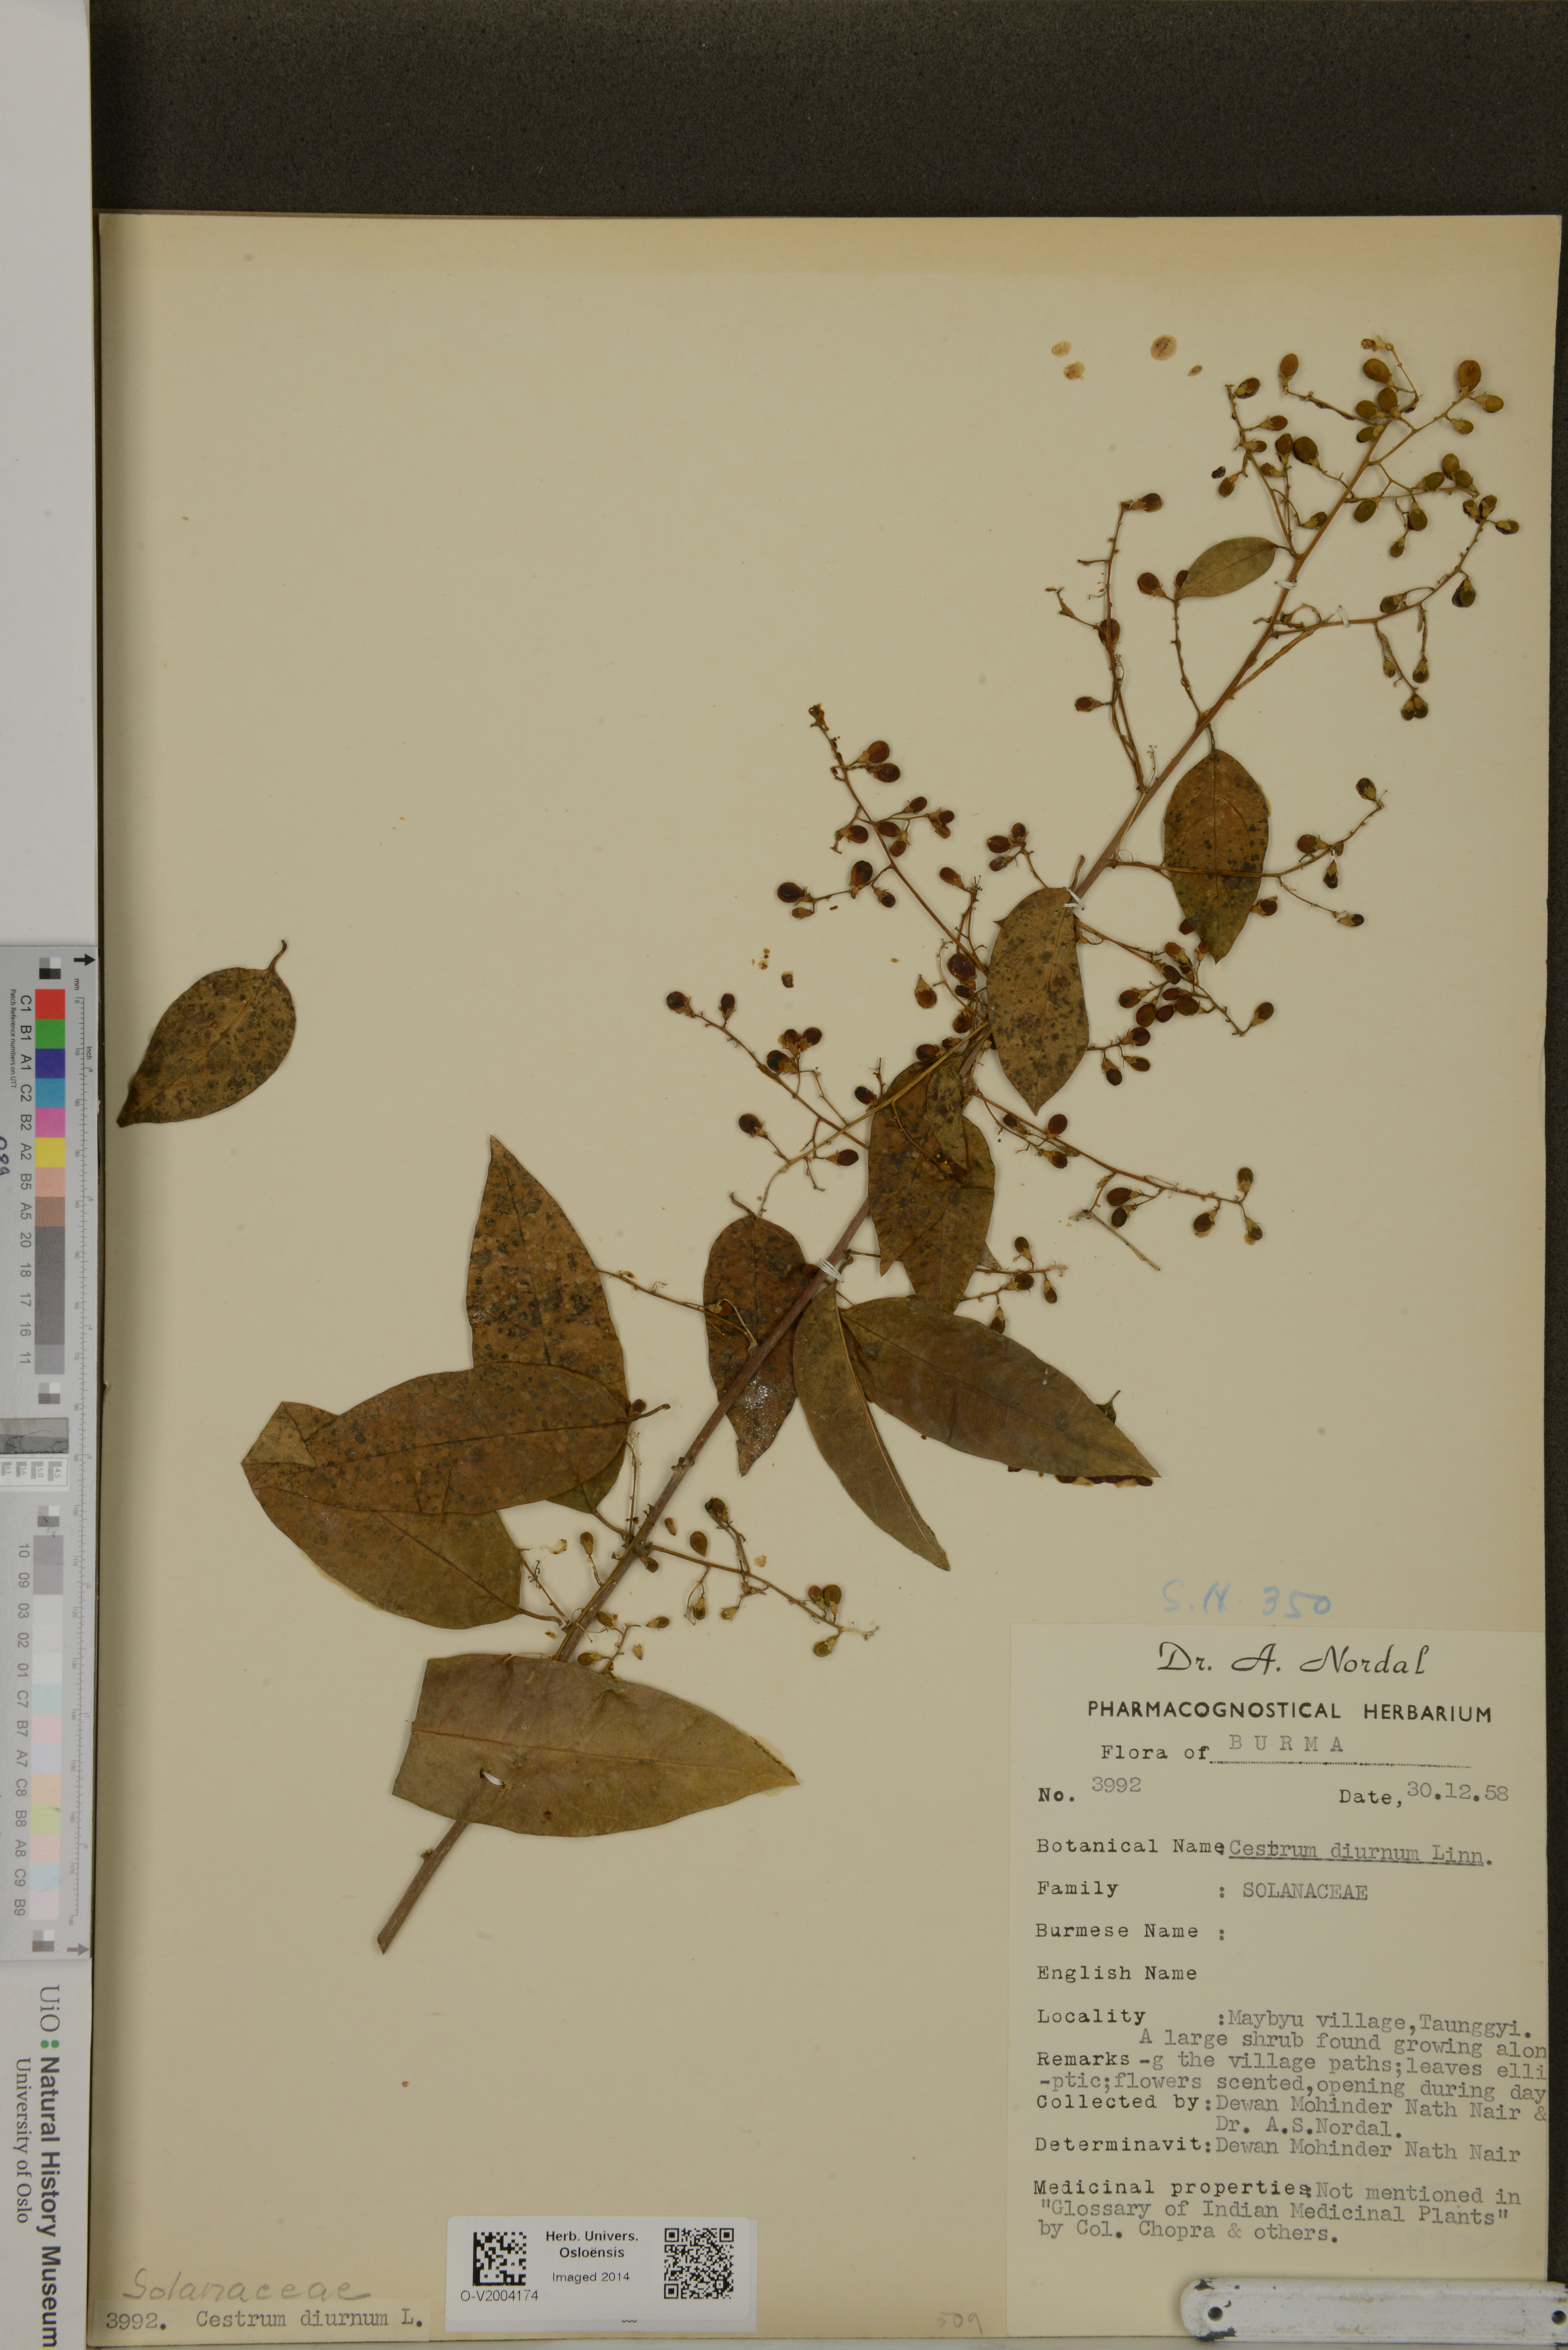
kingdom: Plantae
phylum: Tracheophyta
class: Magnoliopsida
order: Solanales
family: Solanaceae
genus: Cestrum
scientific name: Cestrum diurnum
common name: Day jessamine
